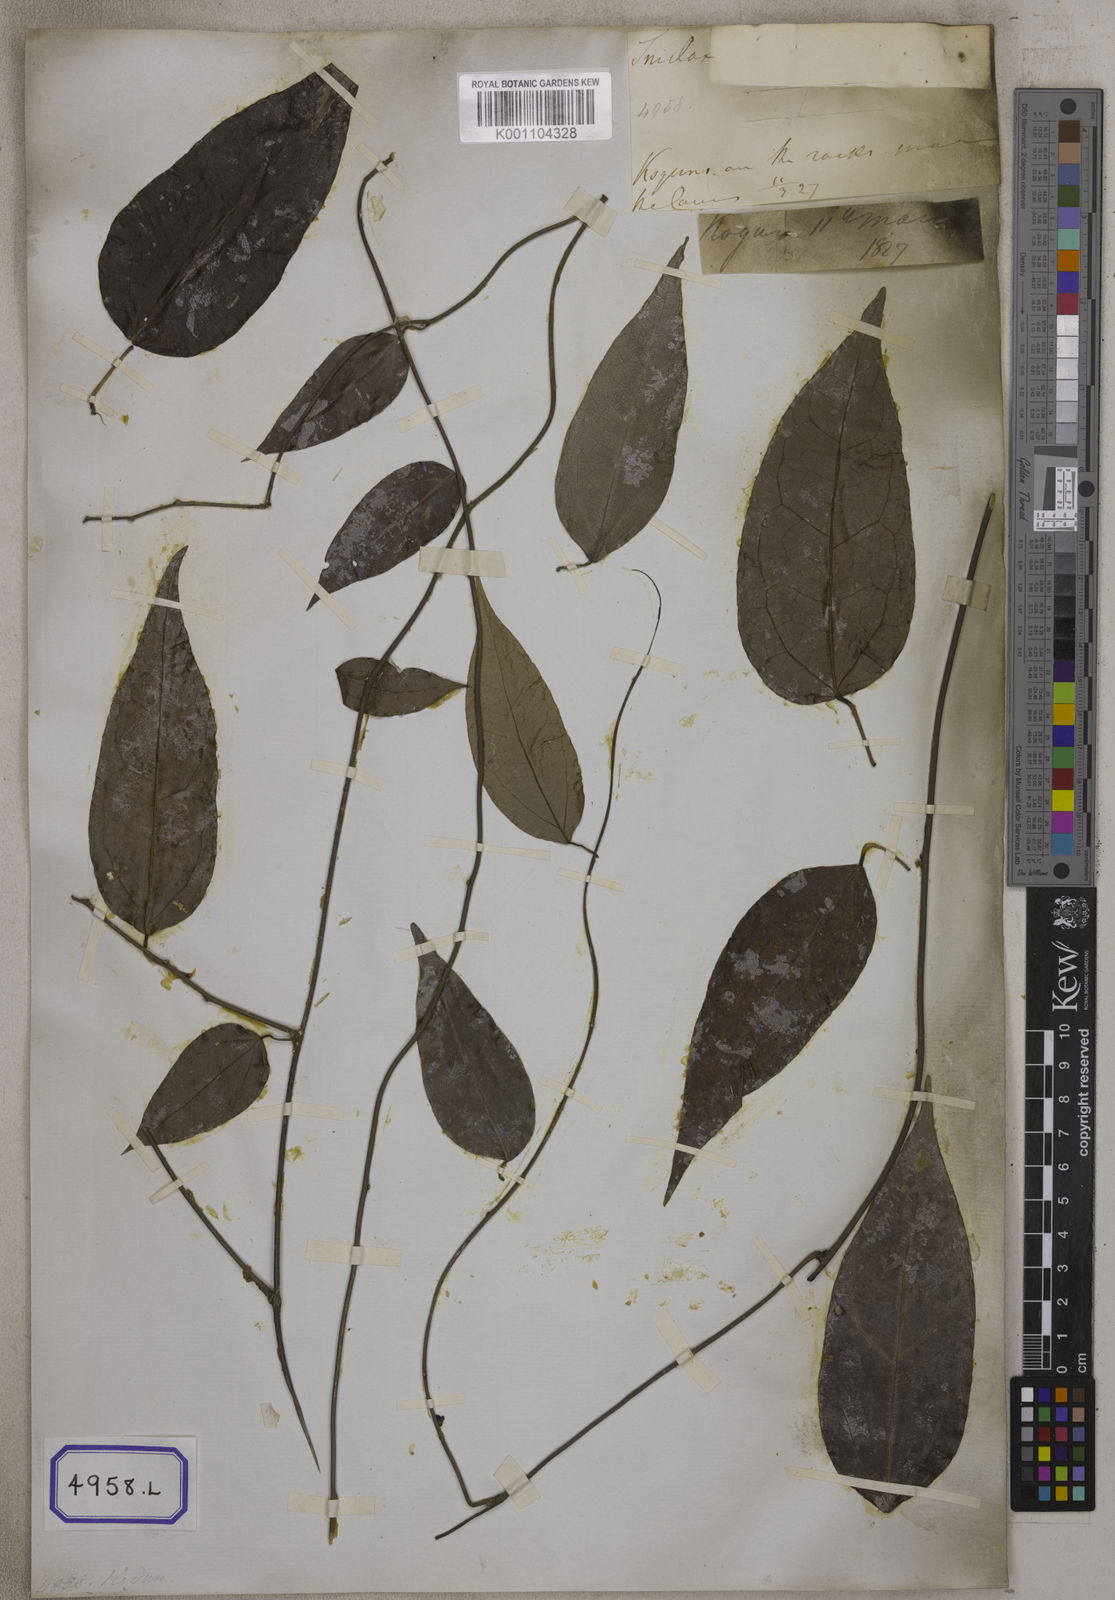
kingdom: Plantae
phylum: Tracheophyta
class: Magnoliopsida
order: Ranunculales
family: Menispermaceae
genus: Cocculus
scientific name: Cocculus
